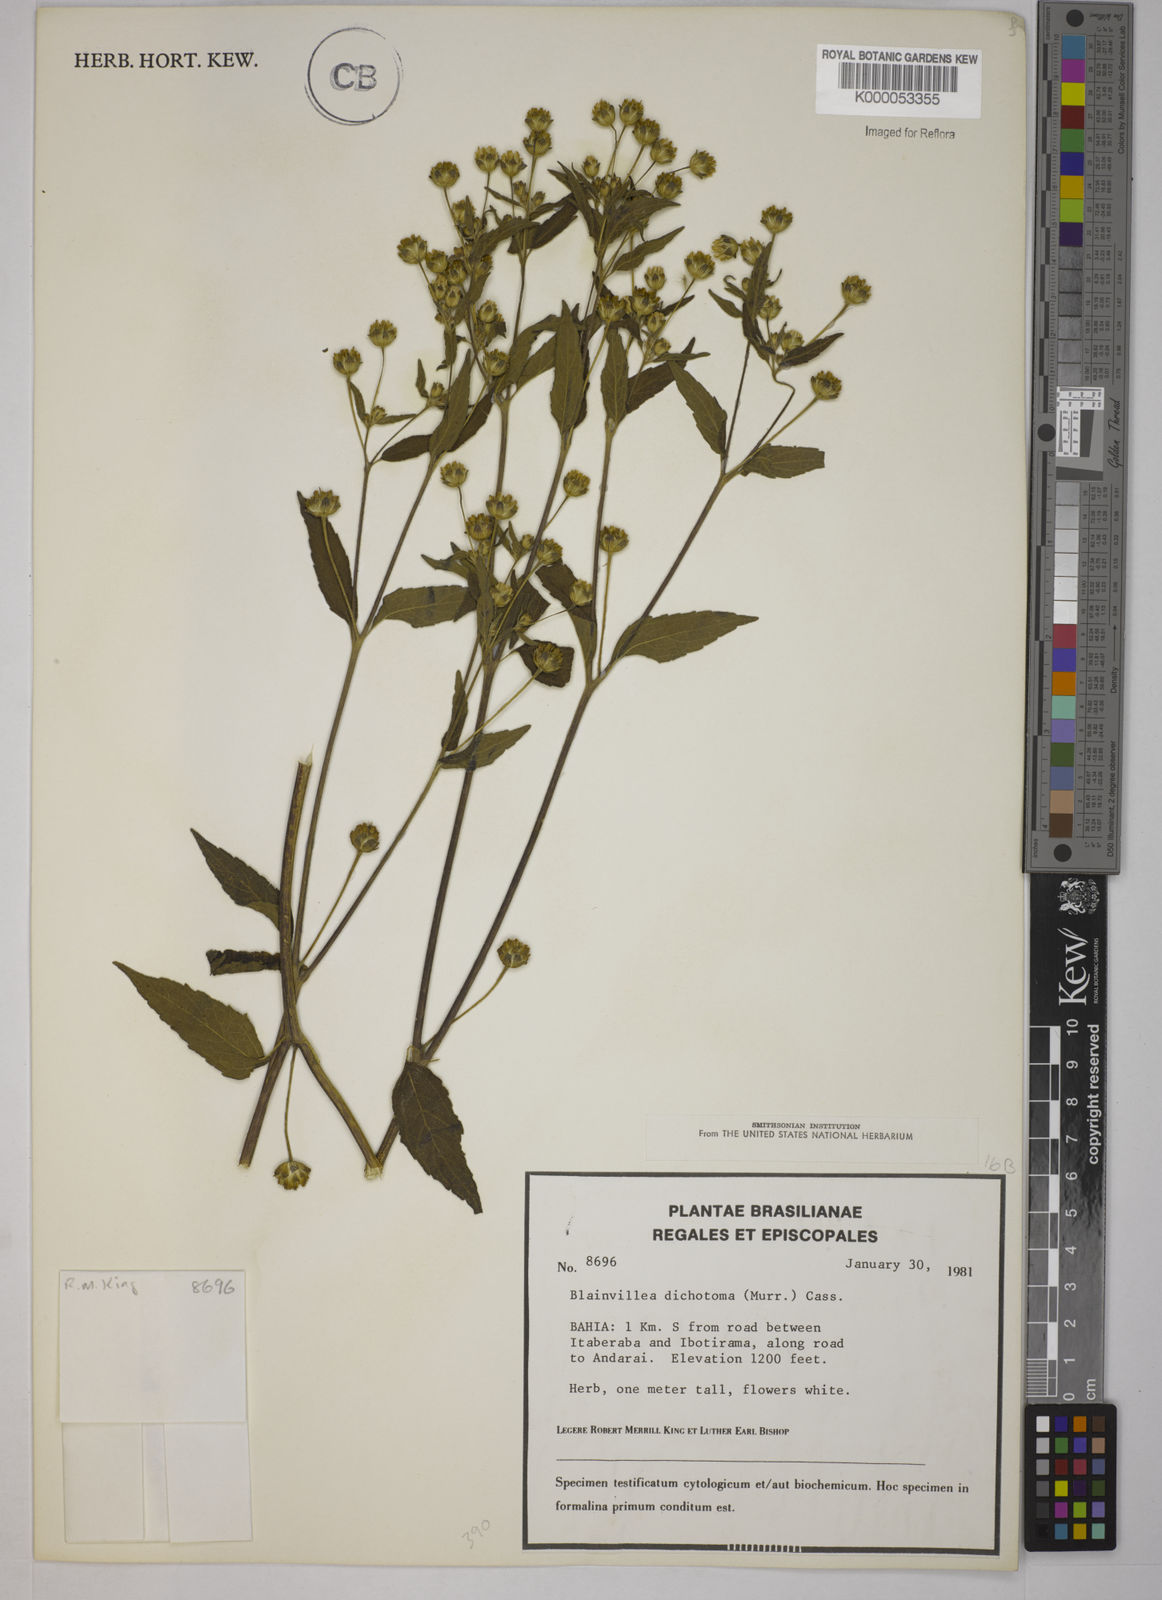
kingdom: Plantae
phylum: Tracheophyta
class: Magnoliopsida
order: Asterales
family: Asteraceae
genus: Blainvillea
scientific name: Blainvillea acmella
